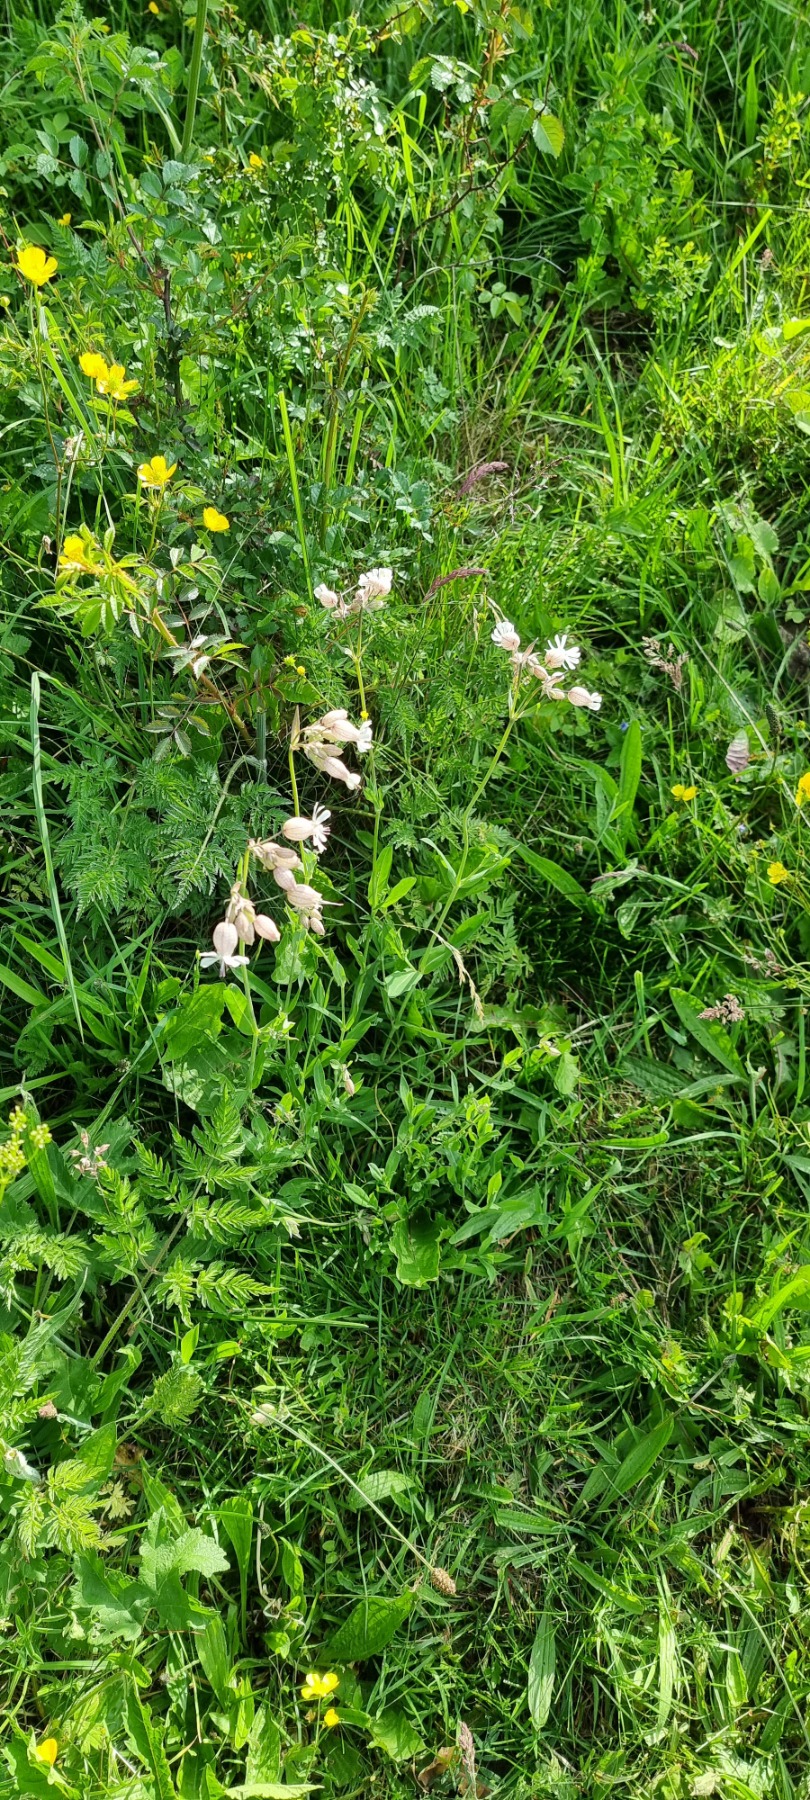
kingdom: Plantae
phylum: Tracheophyta
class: Magnoliopsida
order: Caryophyllales
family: Caryophyllaceae
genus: Silene
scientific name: Silene vulgaris
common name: Blæresmælde
